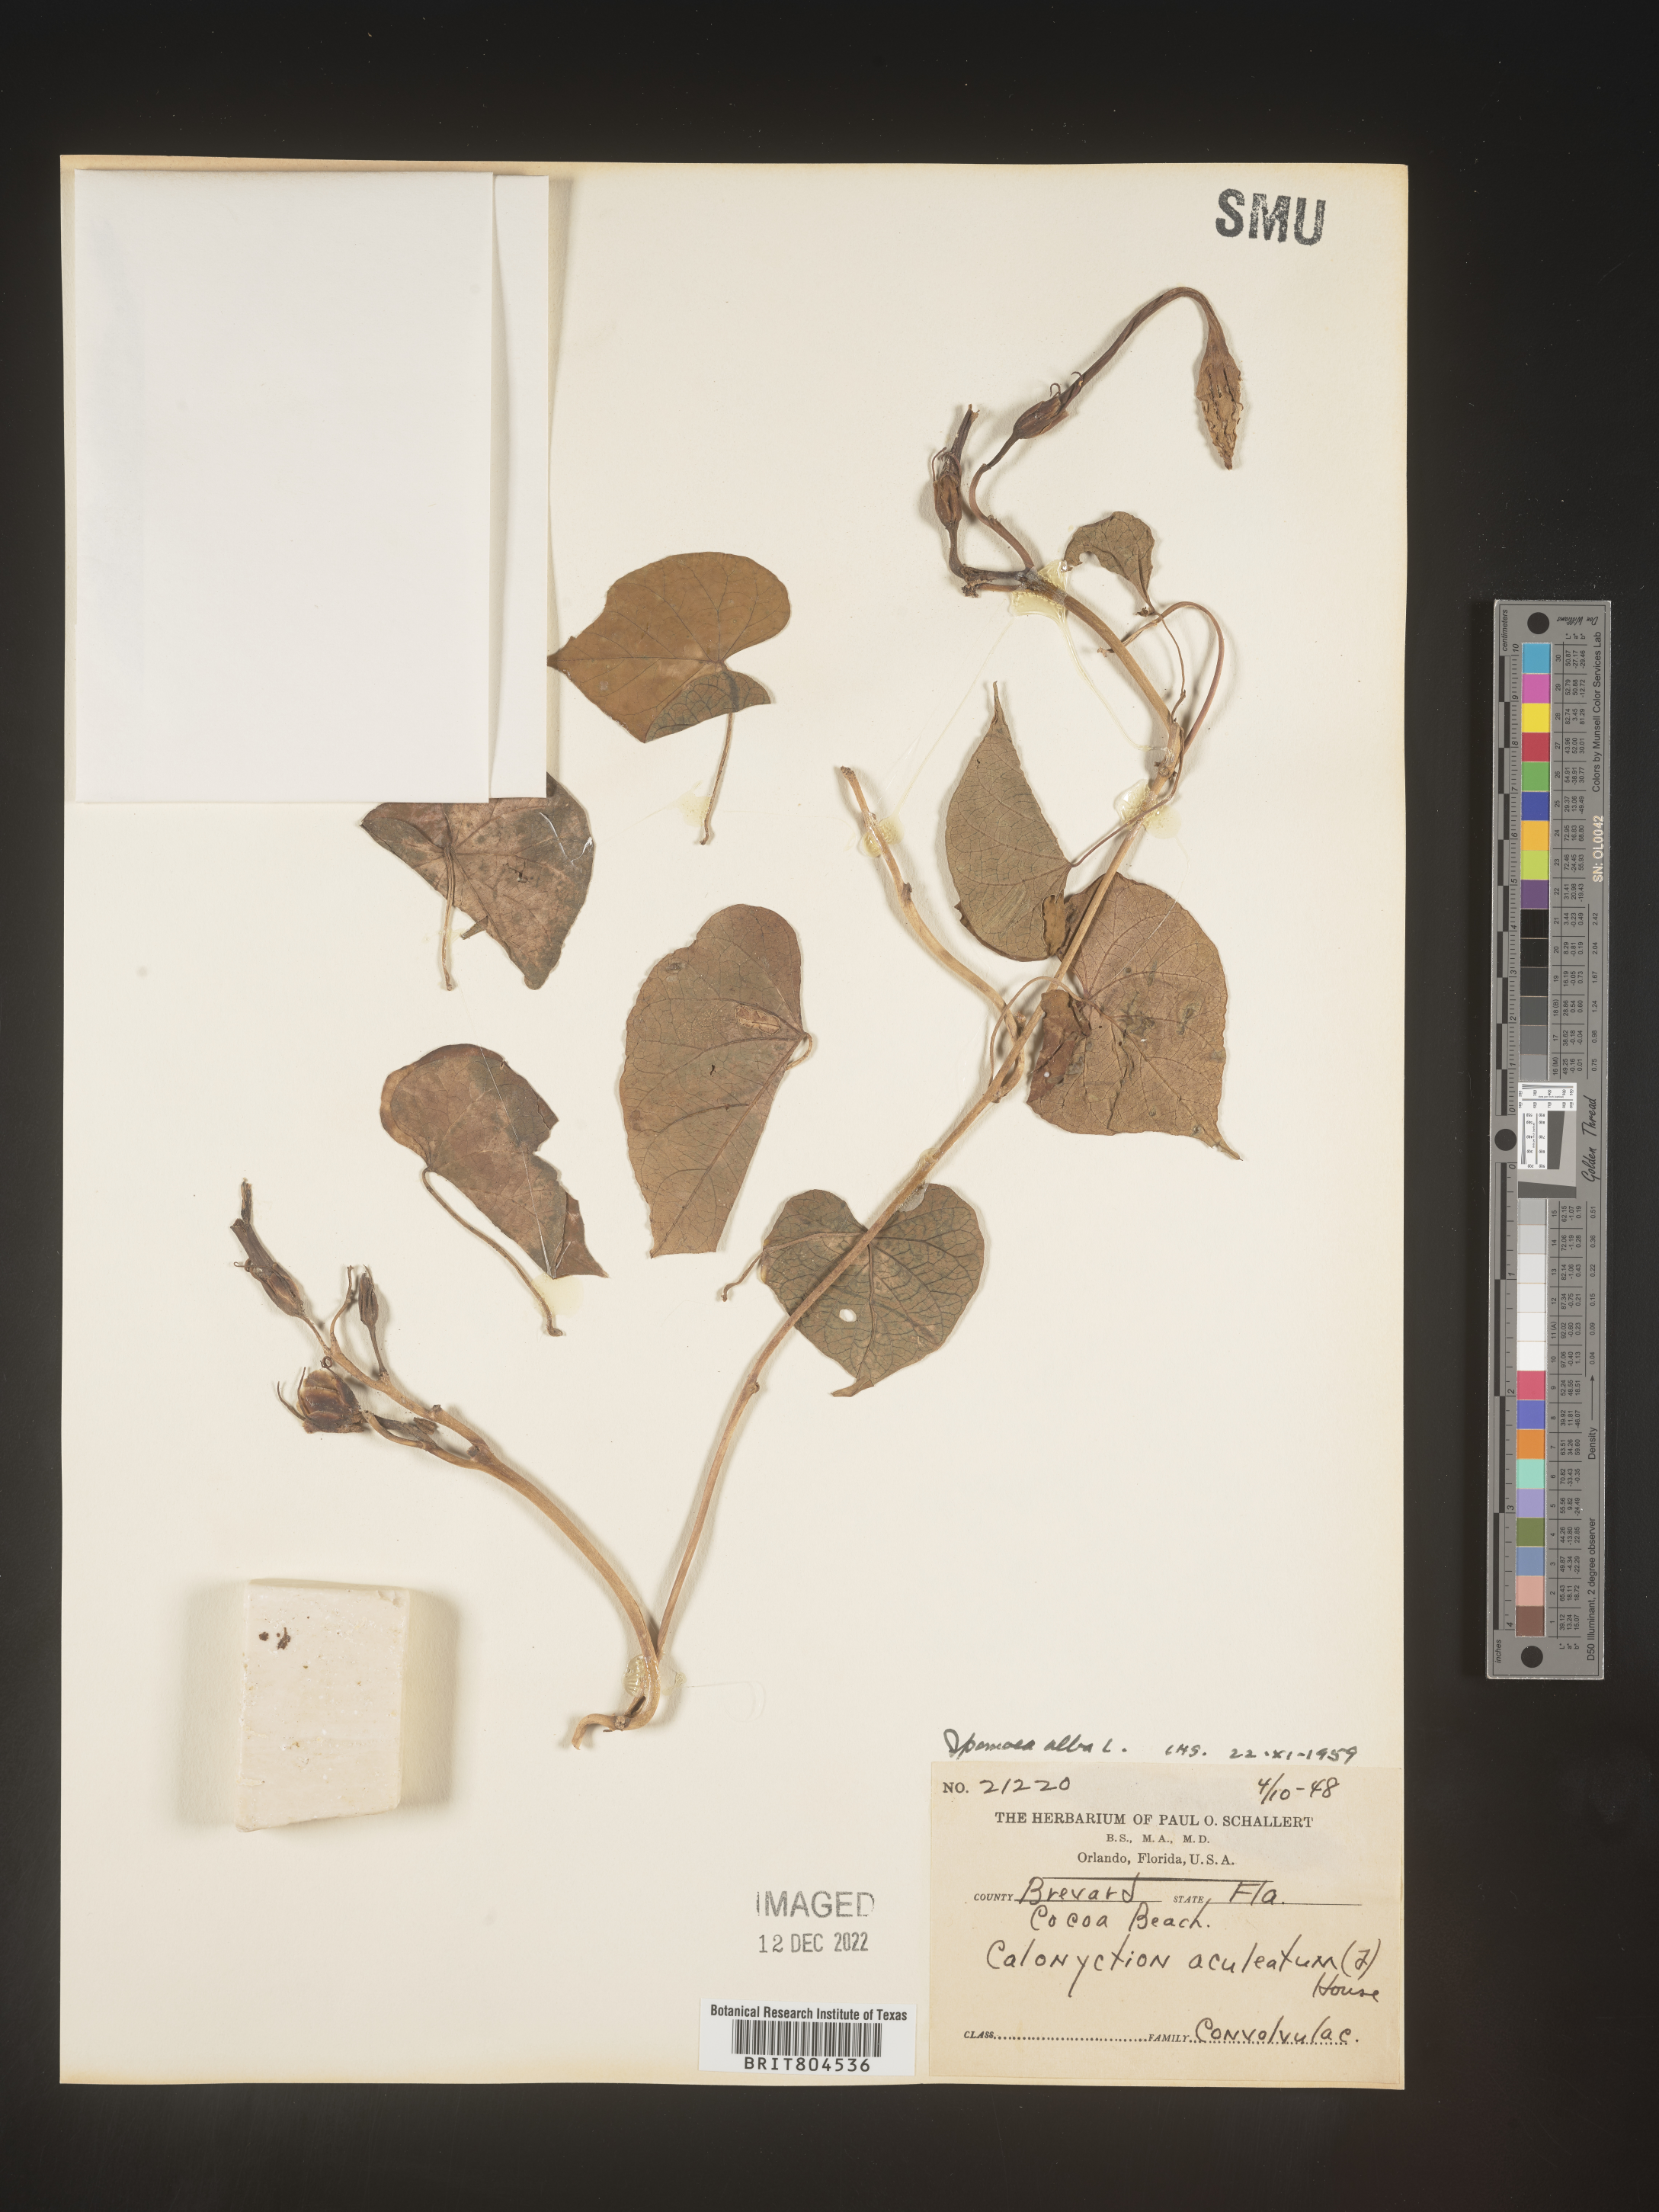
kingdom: Plantae
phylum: Tracheophyta
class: Magnoliopsida
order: Solanales
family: Convolvulaceae
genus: Ipomoea
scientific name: Ipomoea alba
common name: Moonflower
